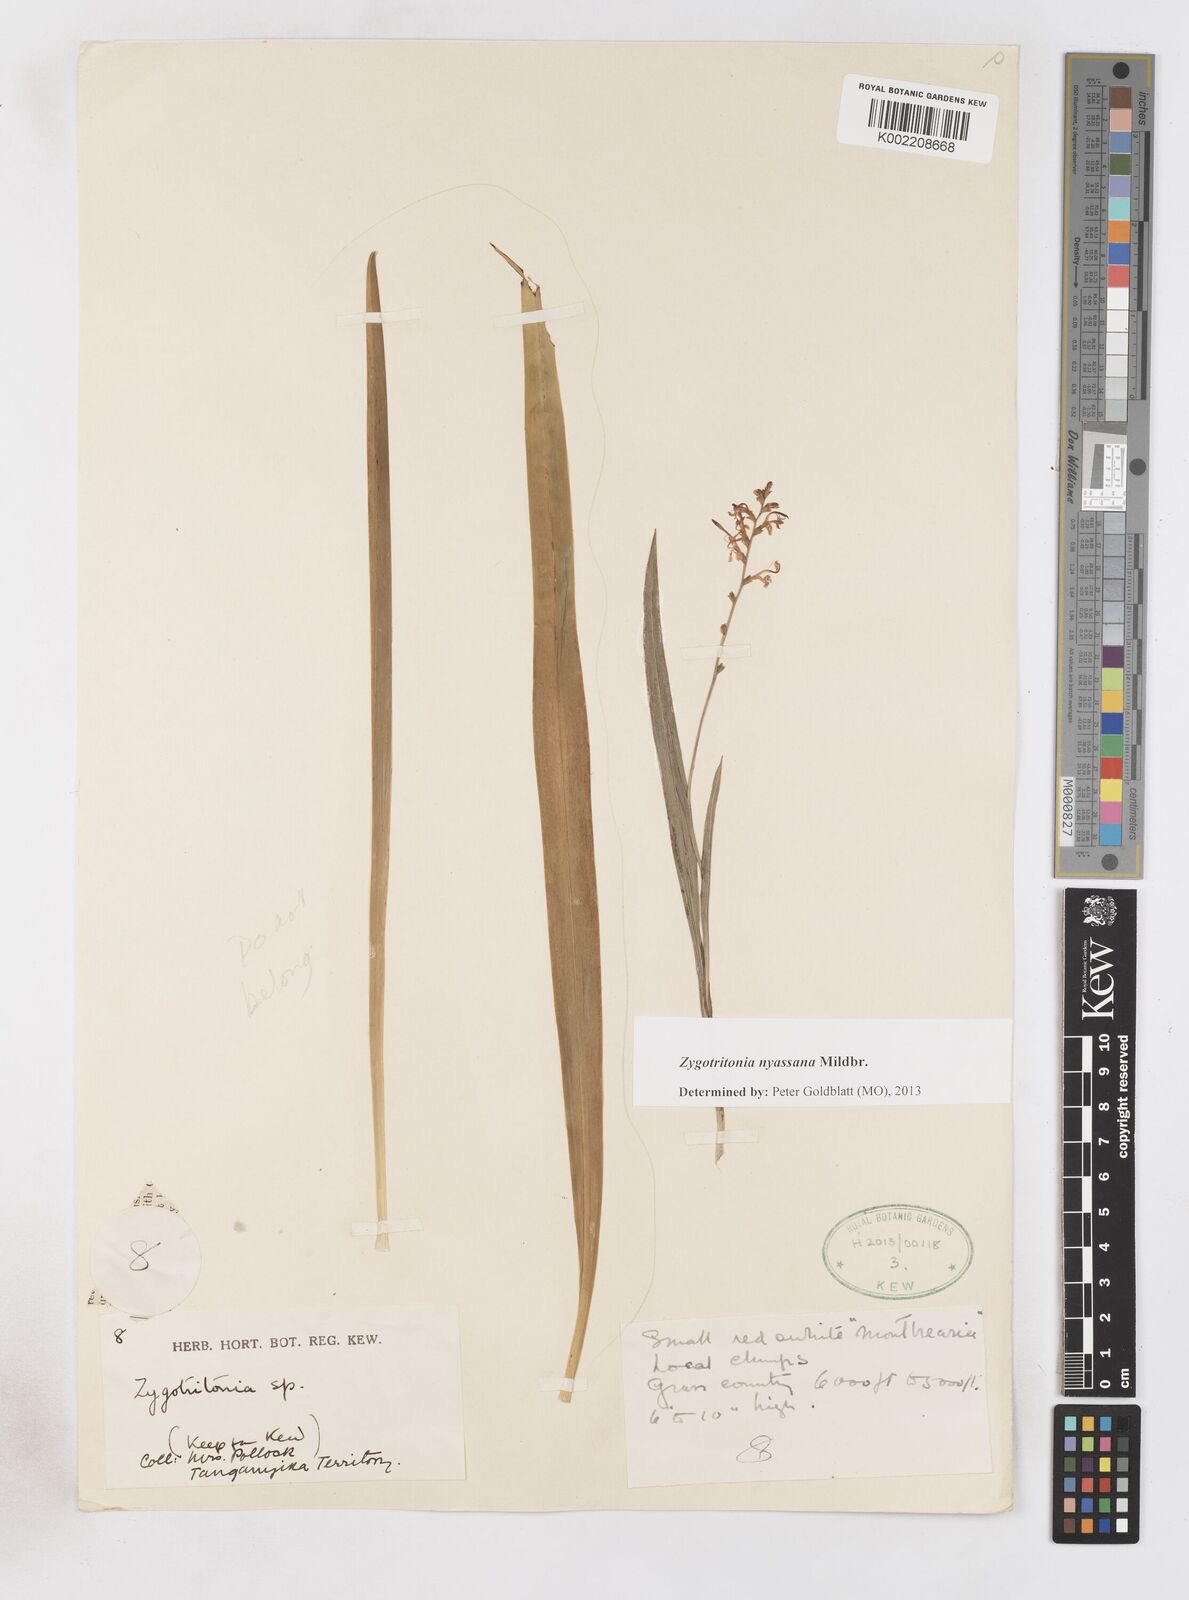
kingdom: Plantae
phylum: Tracheophyta
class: Liliopsida
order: Asparagales
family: Iridaceae
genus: Zygotritonia
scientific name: Zygotritonia nyassana
